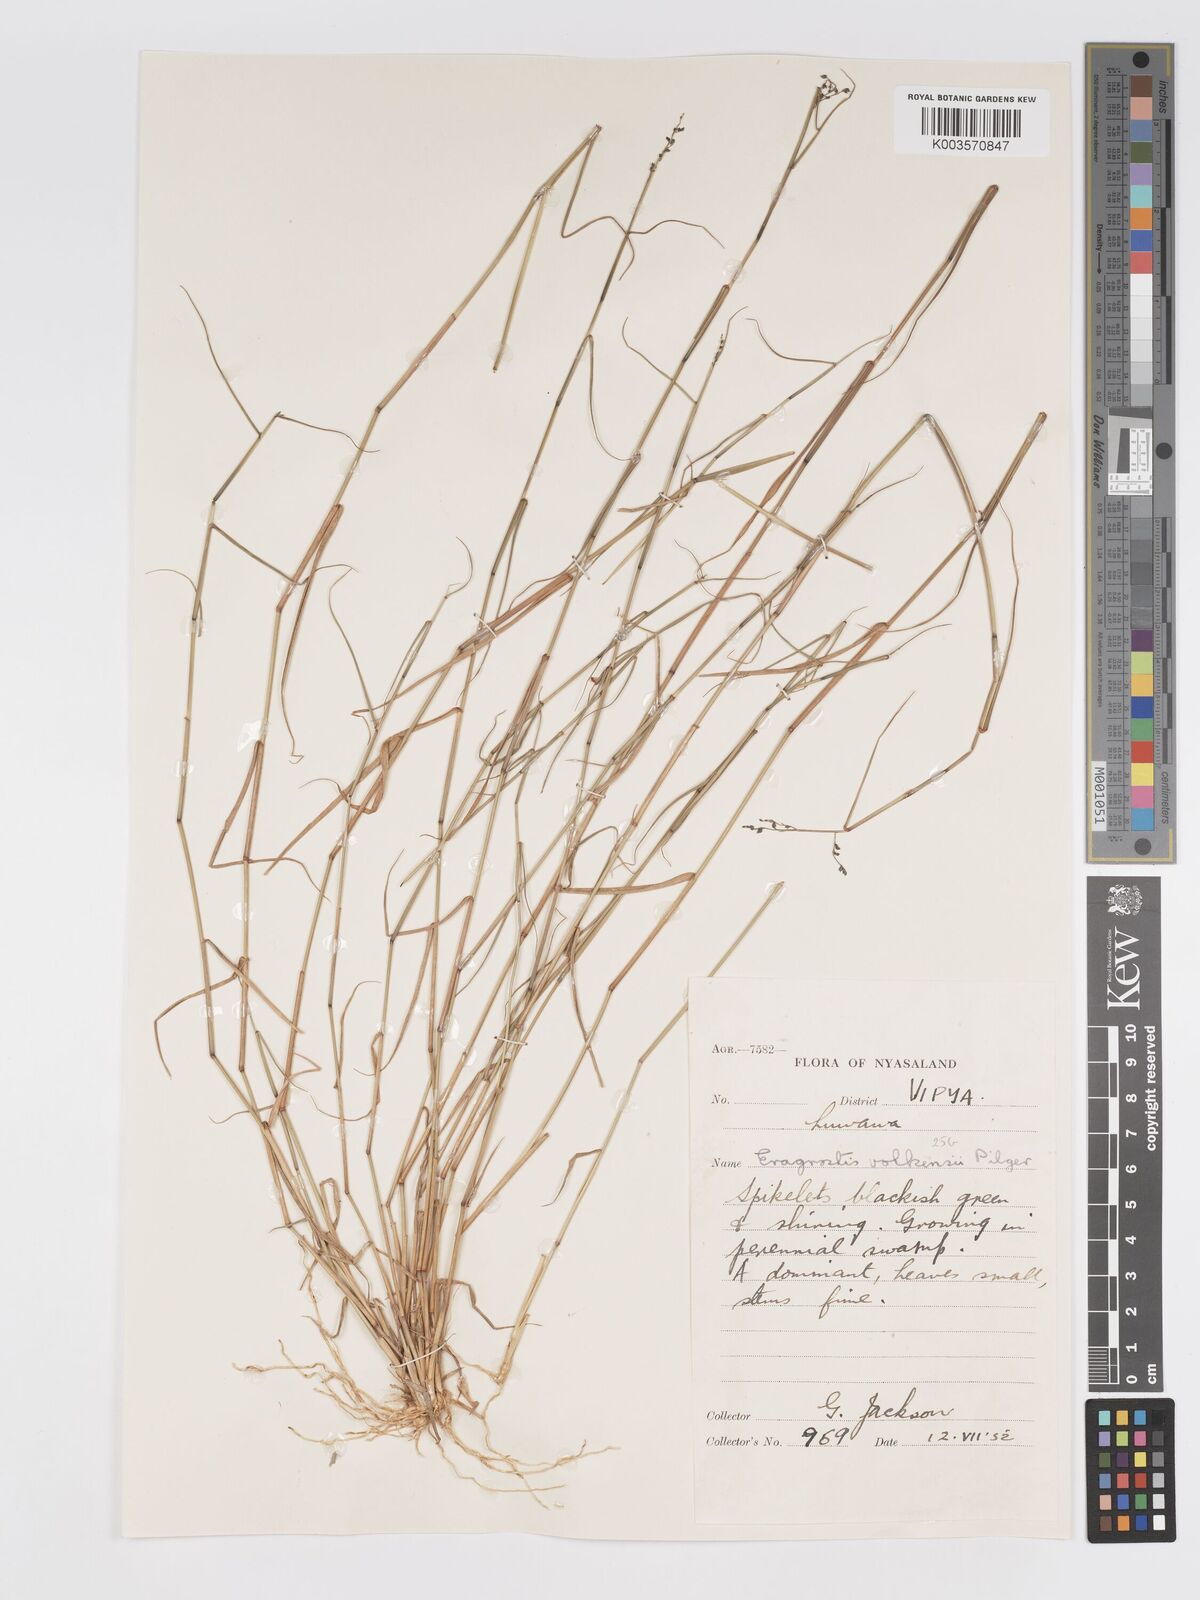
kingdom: Plantae
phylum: Tracheophyta
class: Liliopsida
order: Poales
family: Poaceae
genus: Eragrostis
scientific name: Eragrostis volkensii
